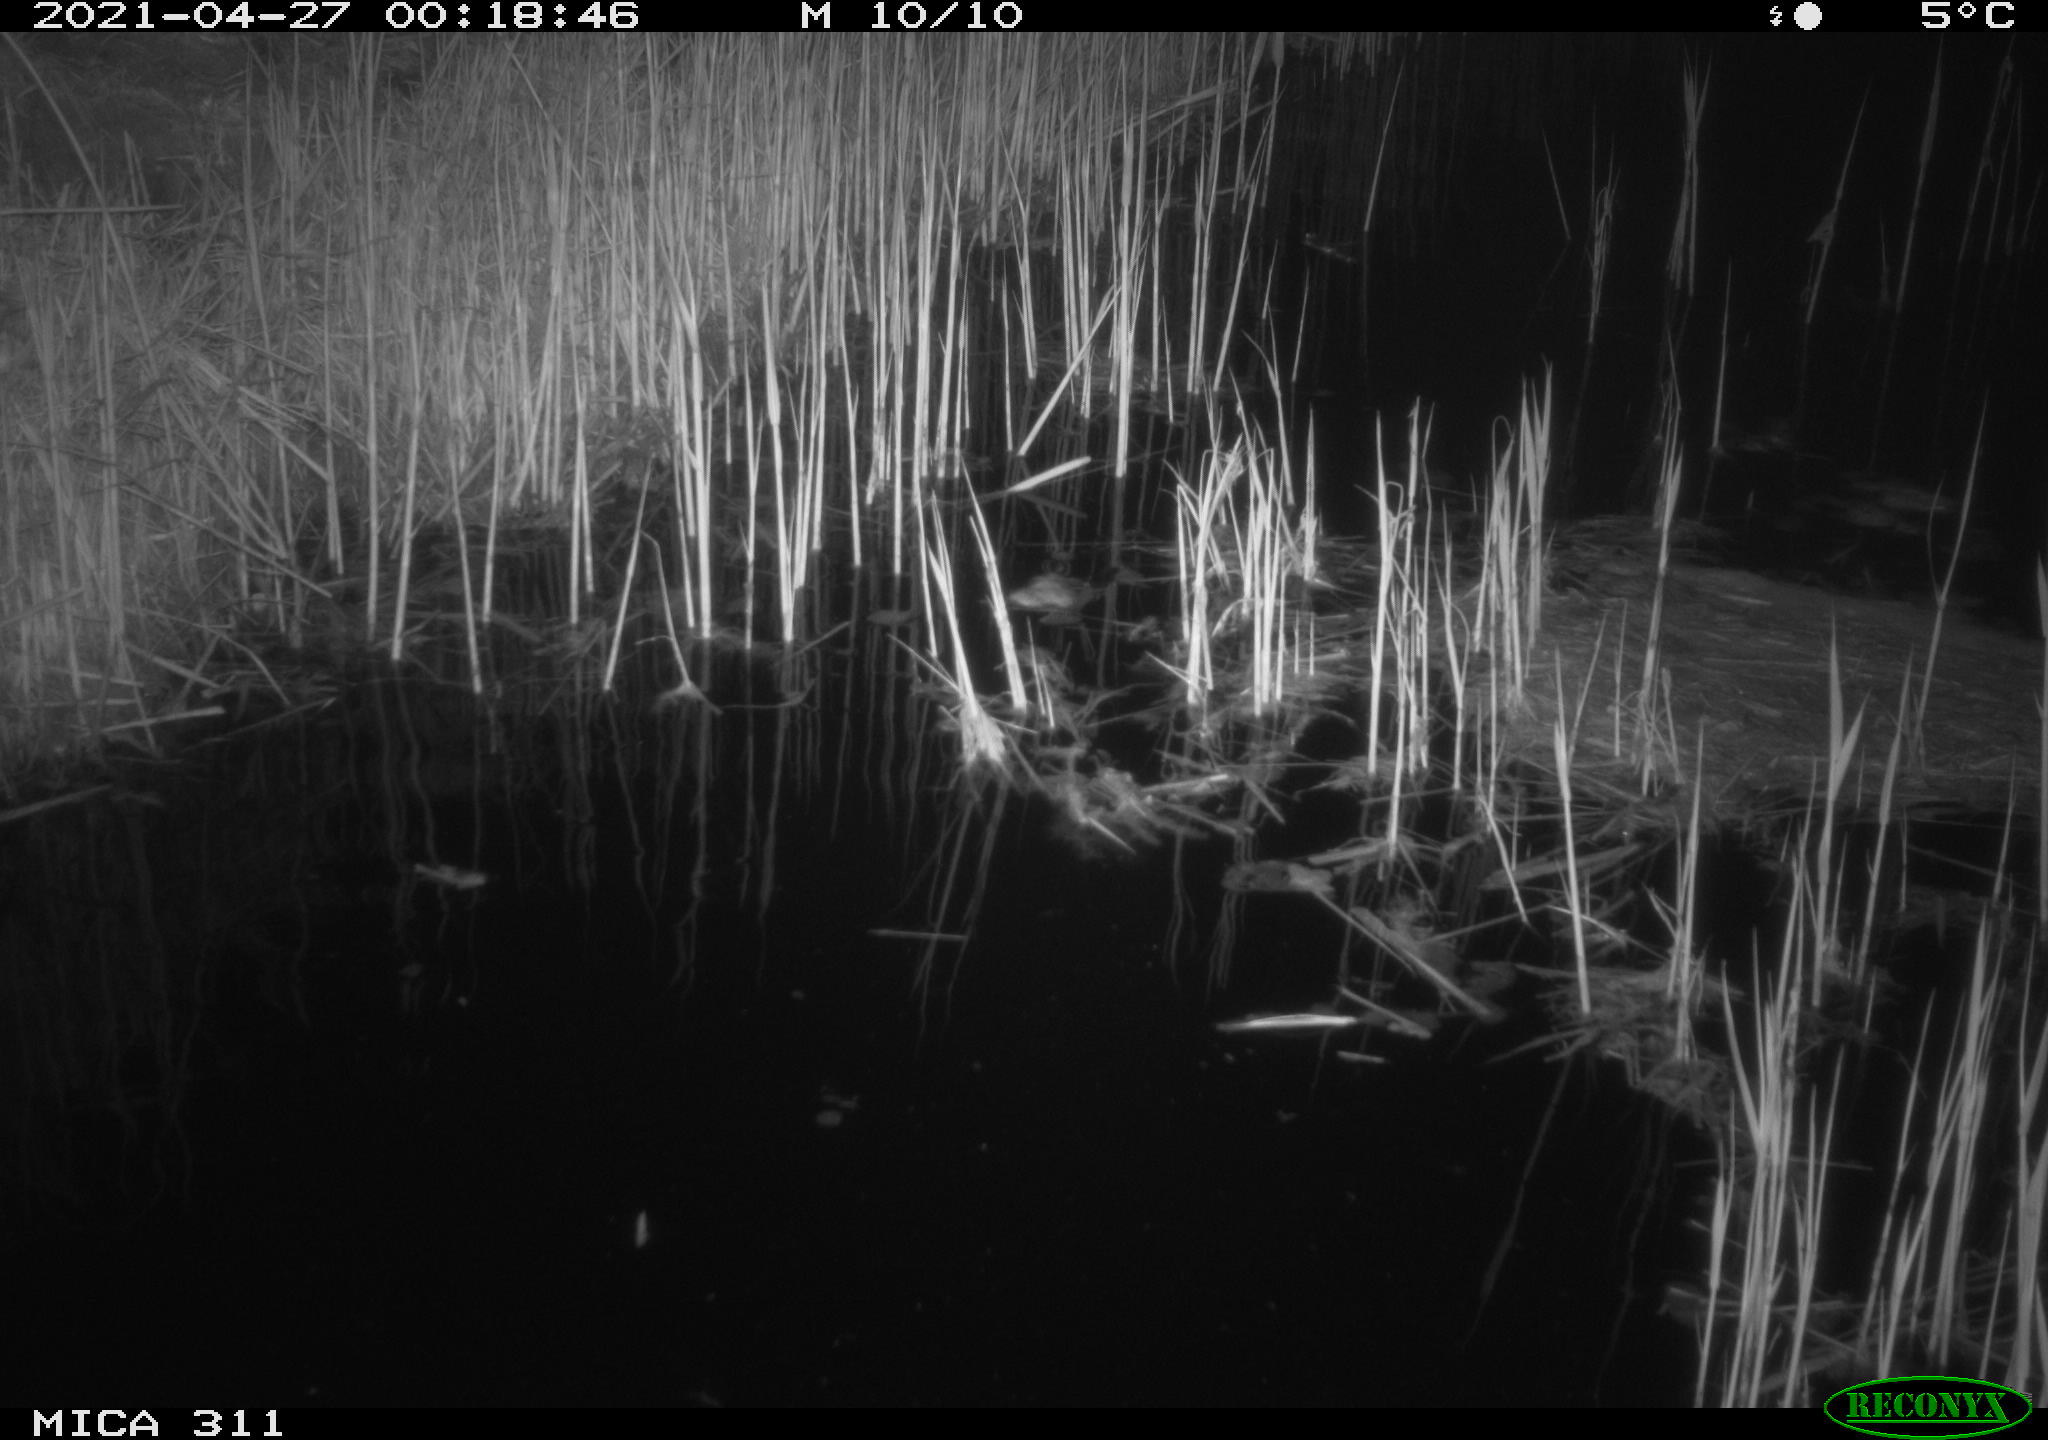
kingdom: Animalia
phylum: Chordata
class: Mammalia
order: Rodentia
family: Cricetidae
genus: Ondatra
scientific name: Ondatra zibethicus
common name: Muskrat
